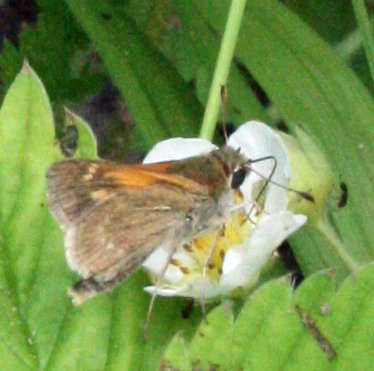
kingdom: Animalia
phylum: Arthropoda
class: Insecta
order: Lepidoptera
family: Hesperiidae
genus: Polites
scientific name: Polites themistocles
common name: Tawny-edged Skipper
